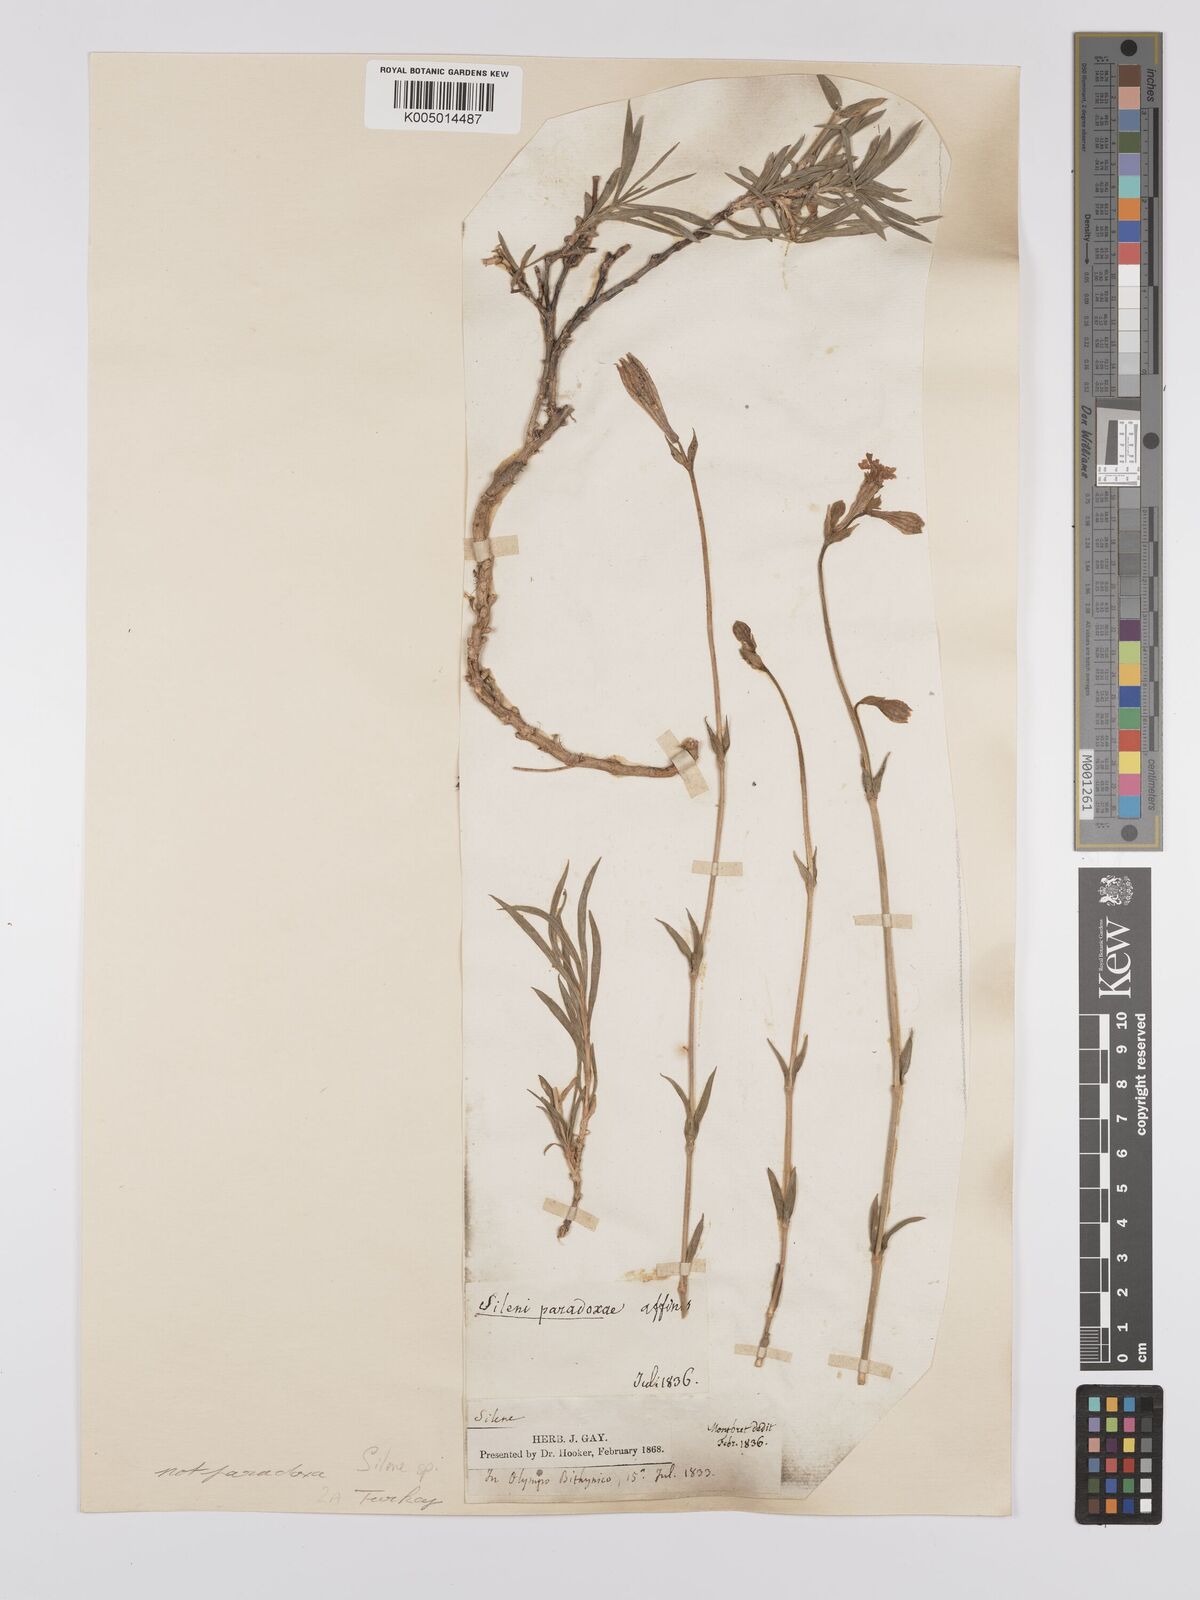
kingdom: Plantae
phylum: Tracheophyta
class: Magnoliopsida
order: Caryophyllales
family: Caryophyllaceae
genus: Silene
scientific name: Silene
